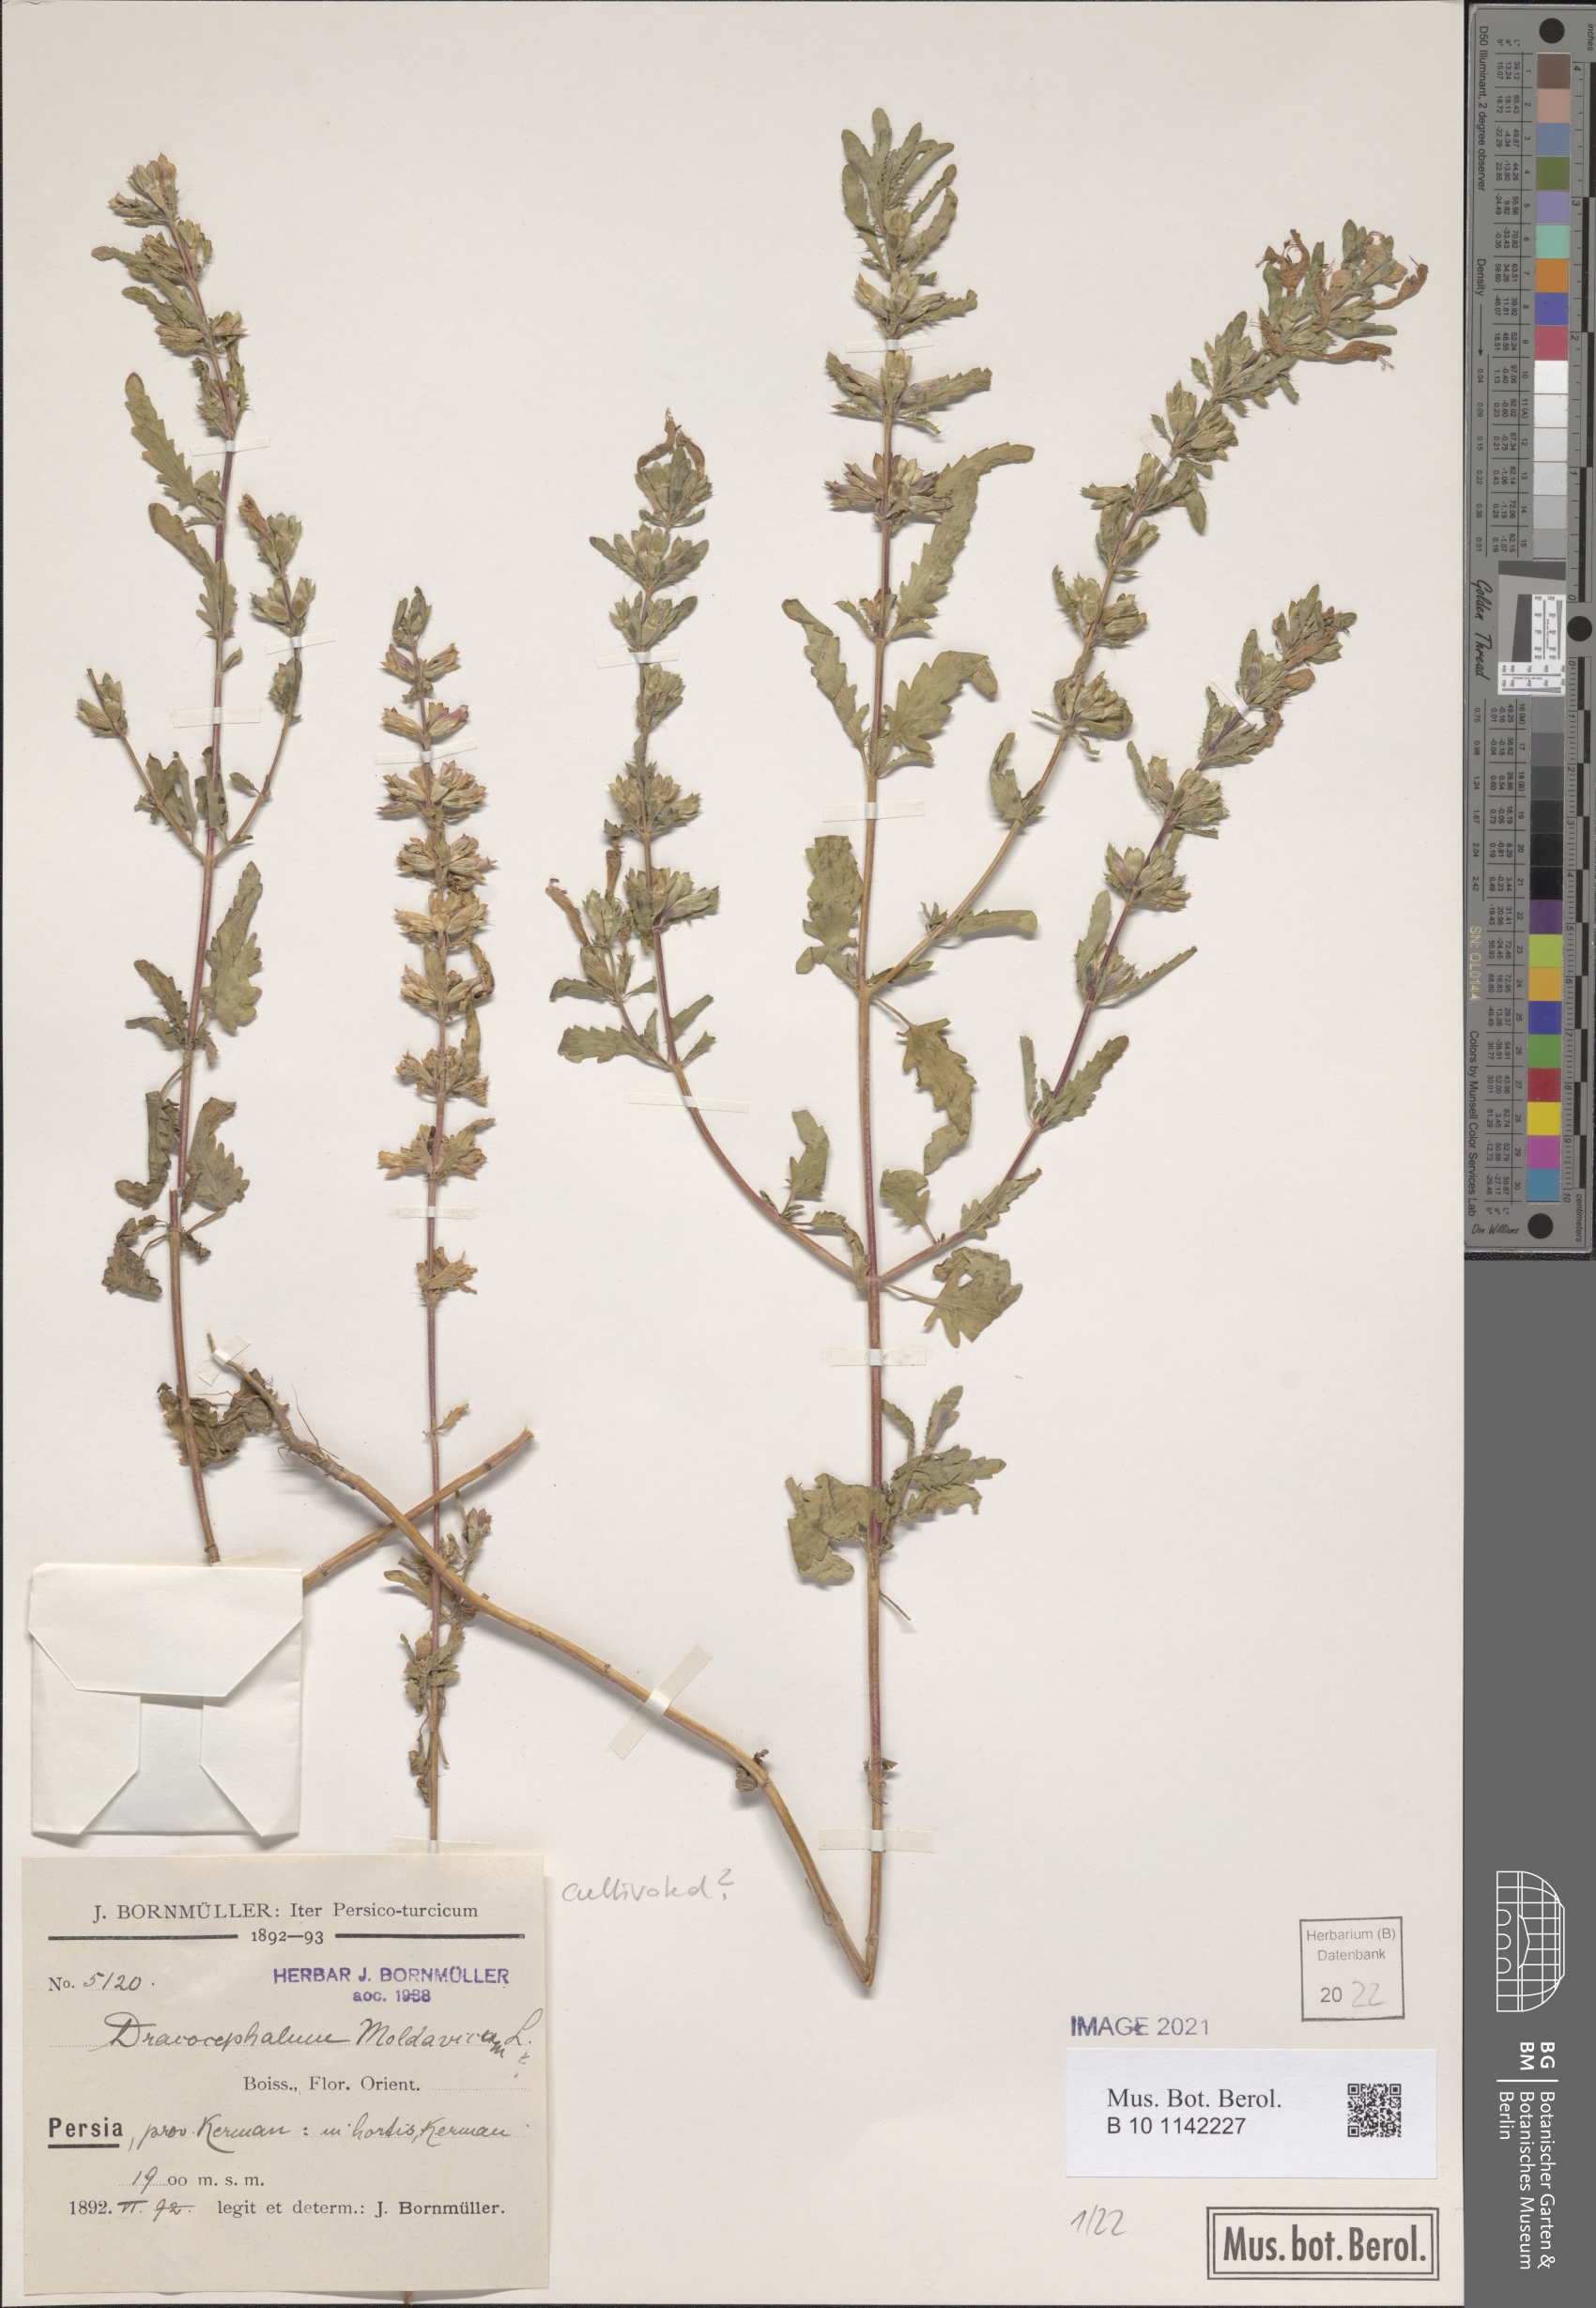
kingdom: Plantae
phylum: Tracheophyta
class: Magnoliopsida
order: Lamiales
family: Lamiaceae
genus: Dracocephalum
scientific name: Dracocephalum moldavica
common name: Moldavian dragonhead
